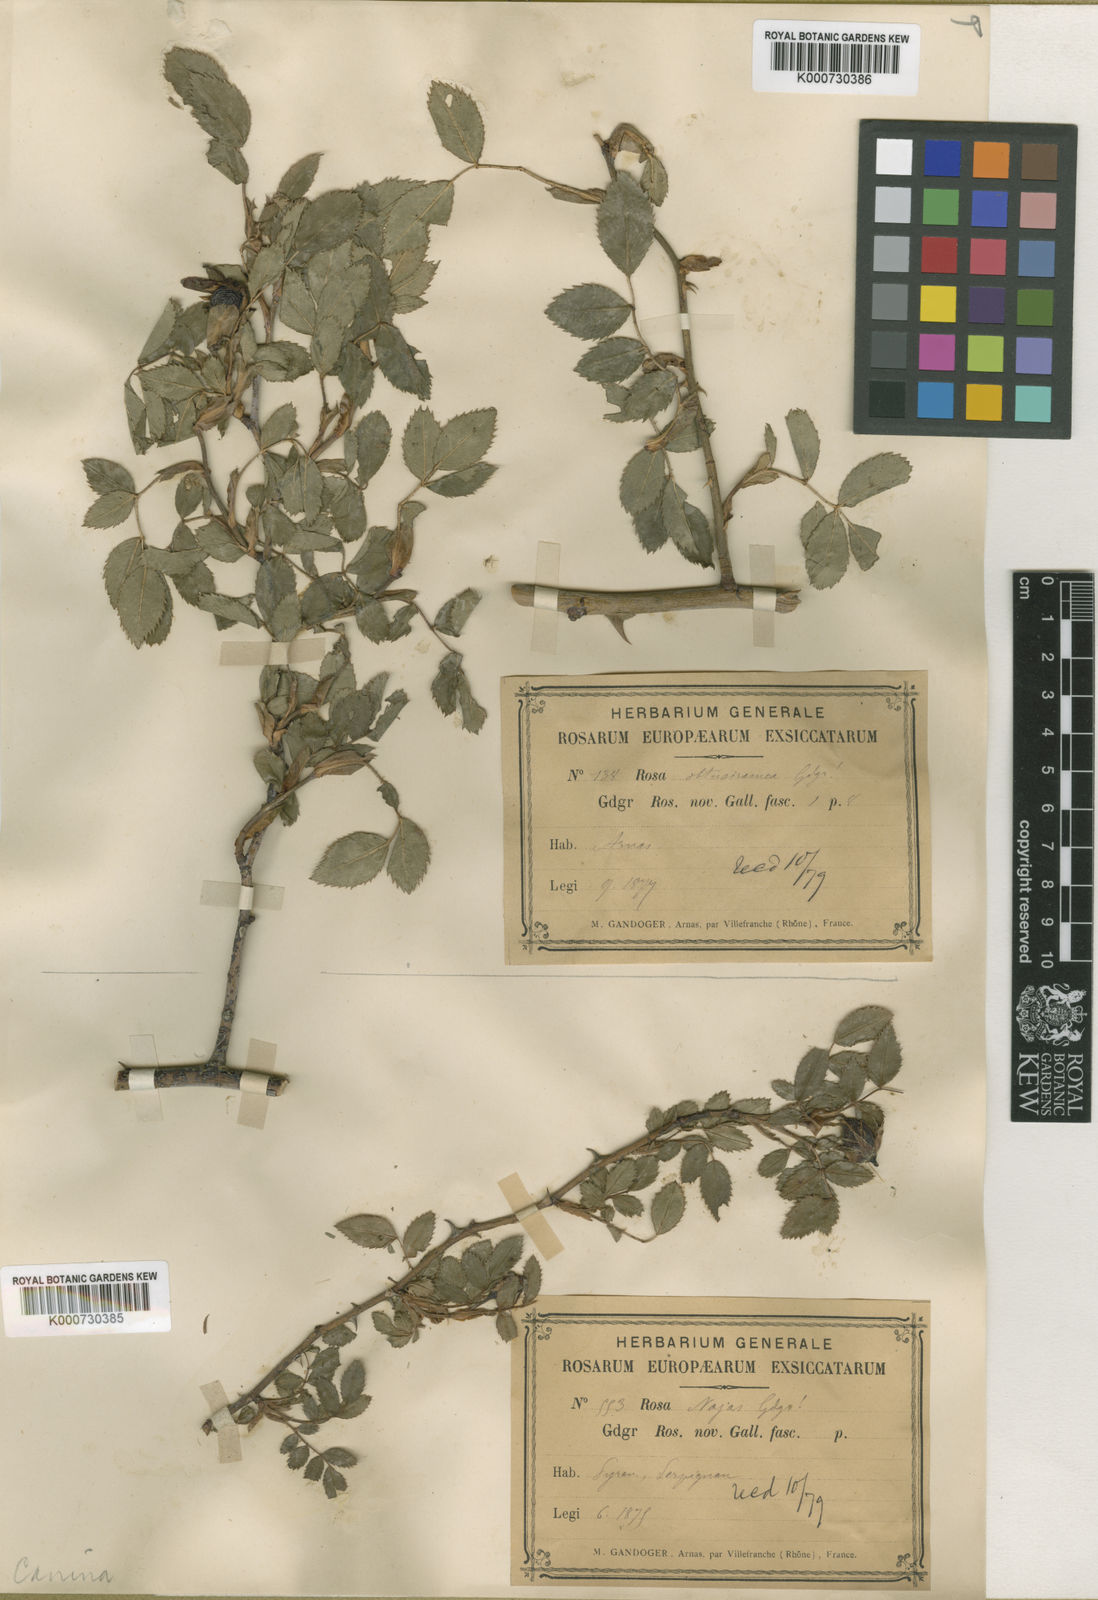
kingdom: Plantae
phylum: Tracheophyta
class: Magnoliopsida
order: Rosales
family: Rosaceae
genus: Rosa
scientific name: Rosa canina
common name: Dog rose
